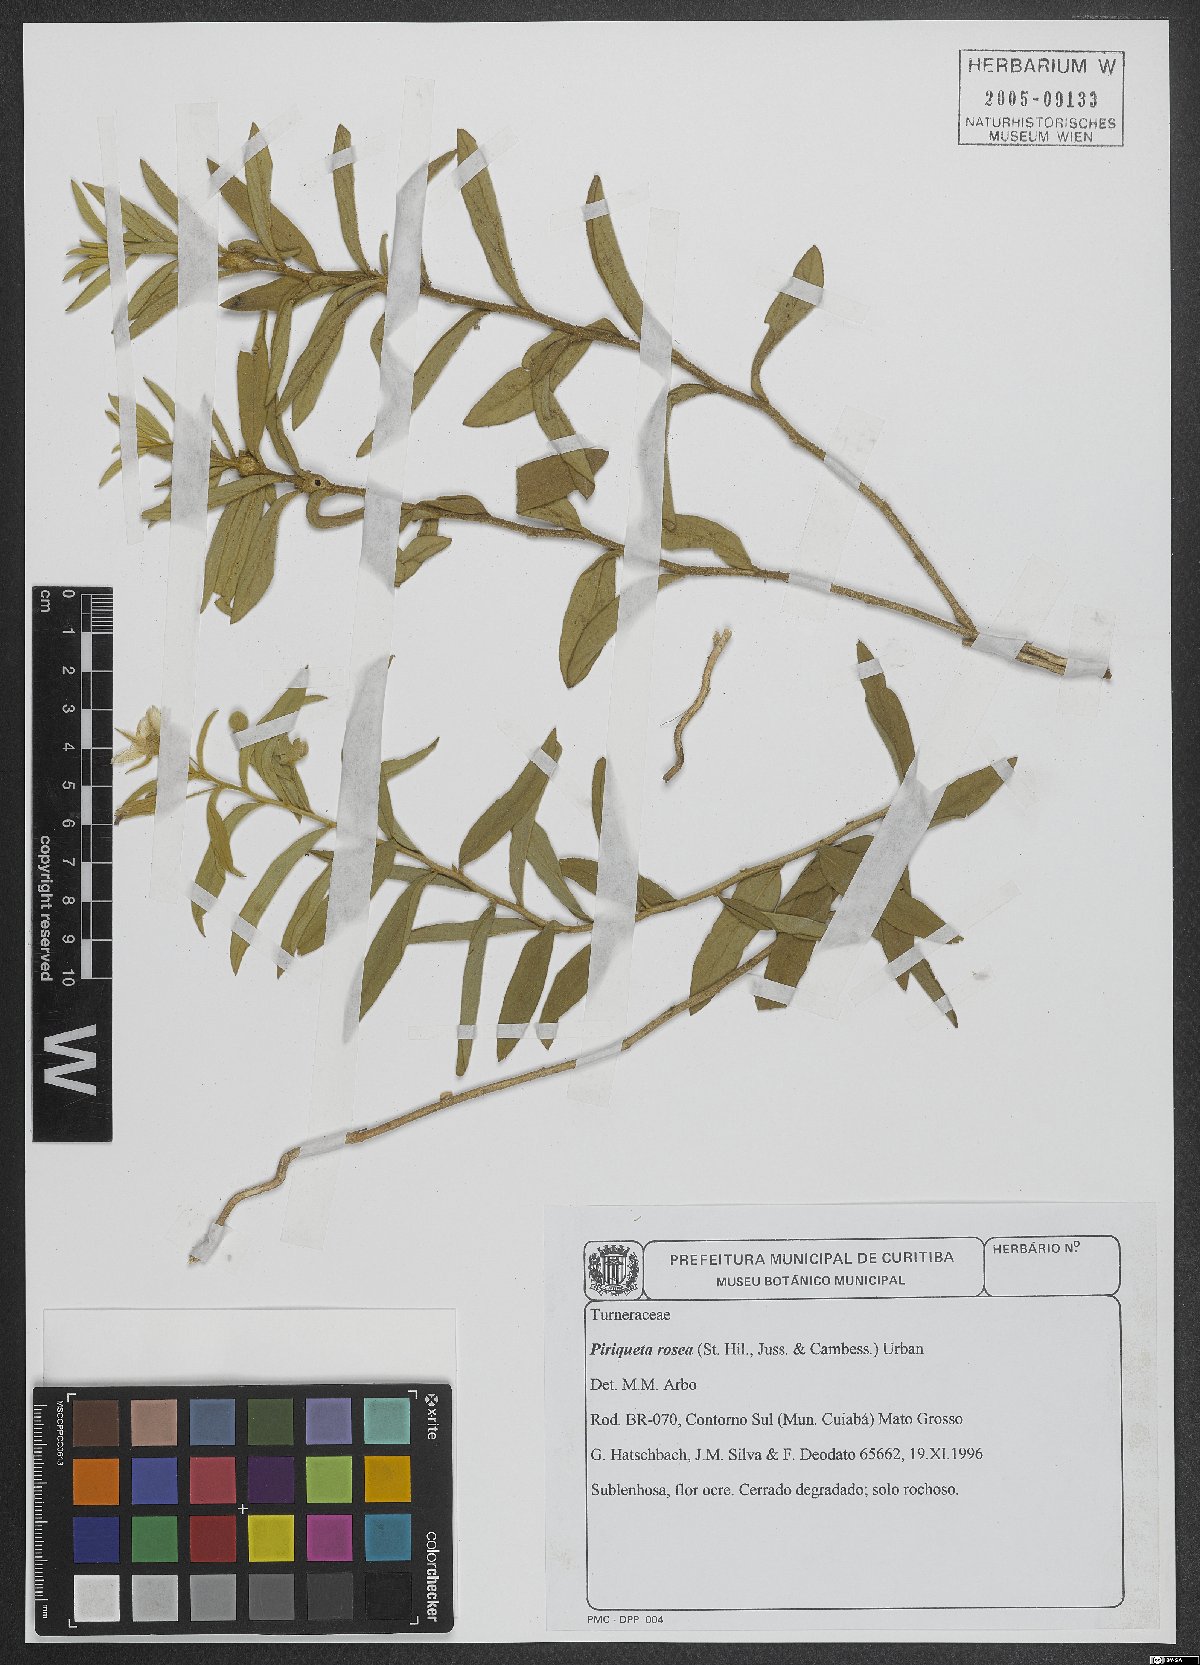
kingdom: Plantae
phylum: Tracheophyta
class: Magnoliopsida
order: Malpighiales
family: Turneraceae
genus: Piriqueta
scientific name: Piriqueta rosea
